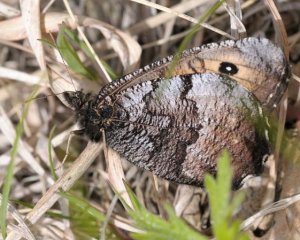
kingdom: Animalia
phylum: Arthropoda
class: Insecta
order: Lepidoptera
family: Nymphalidae
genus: Oeneis
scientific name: Oeneis macounii
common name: Macoun's Arctic
